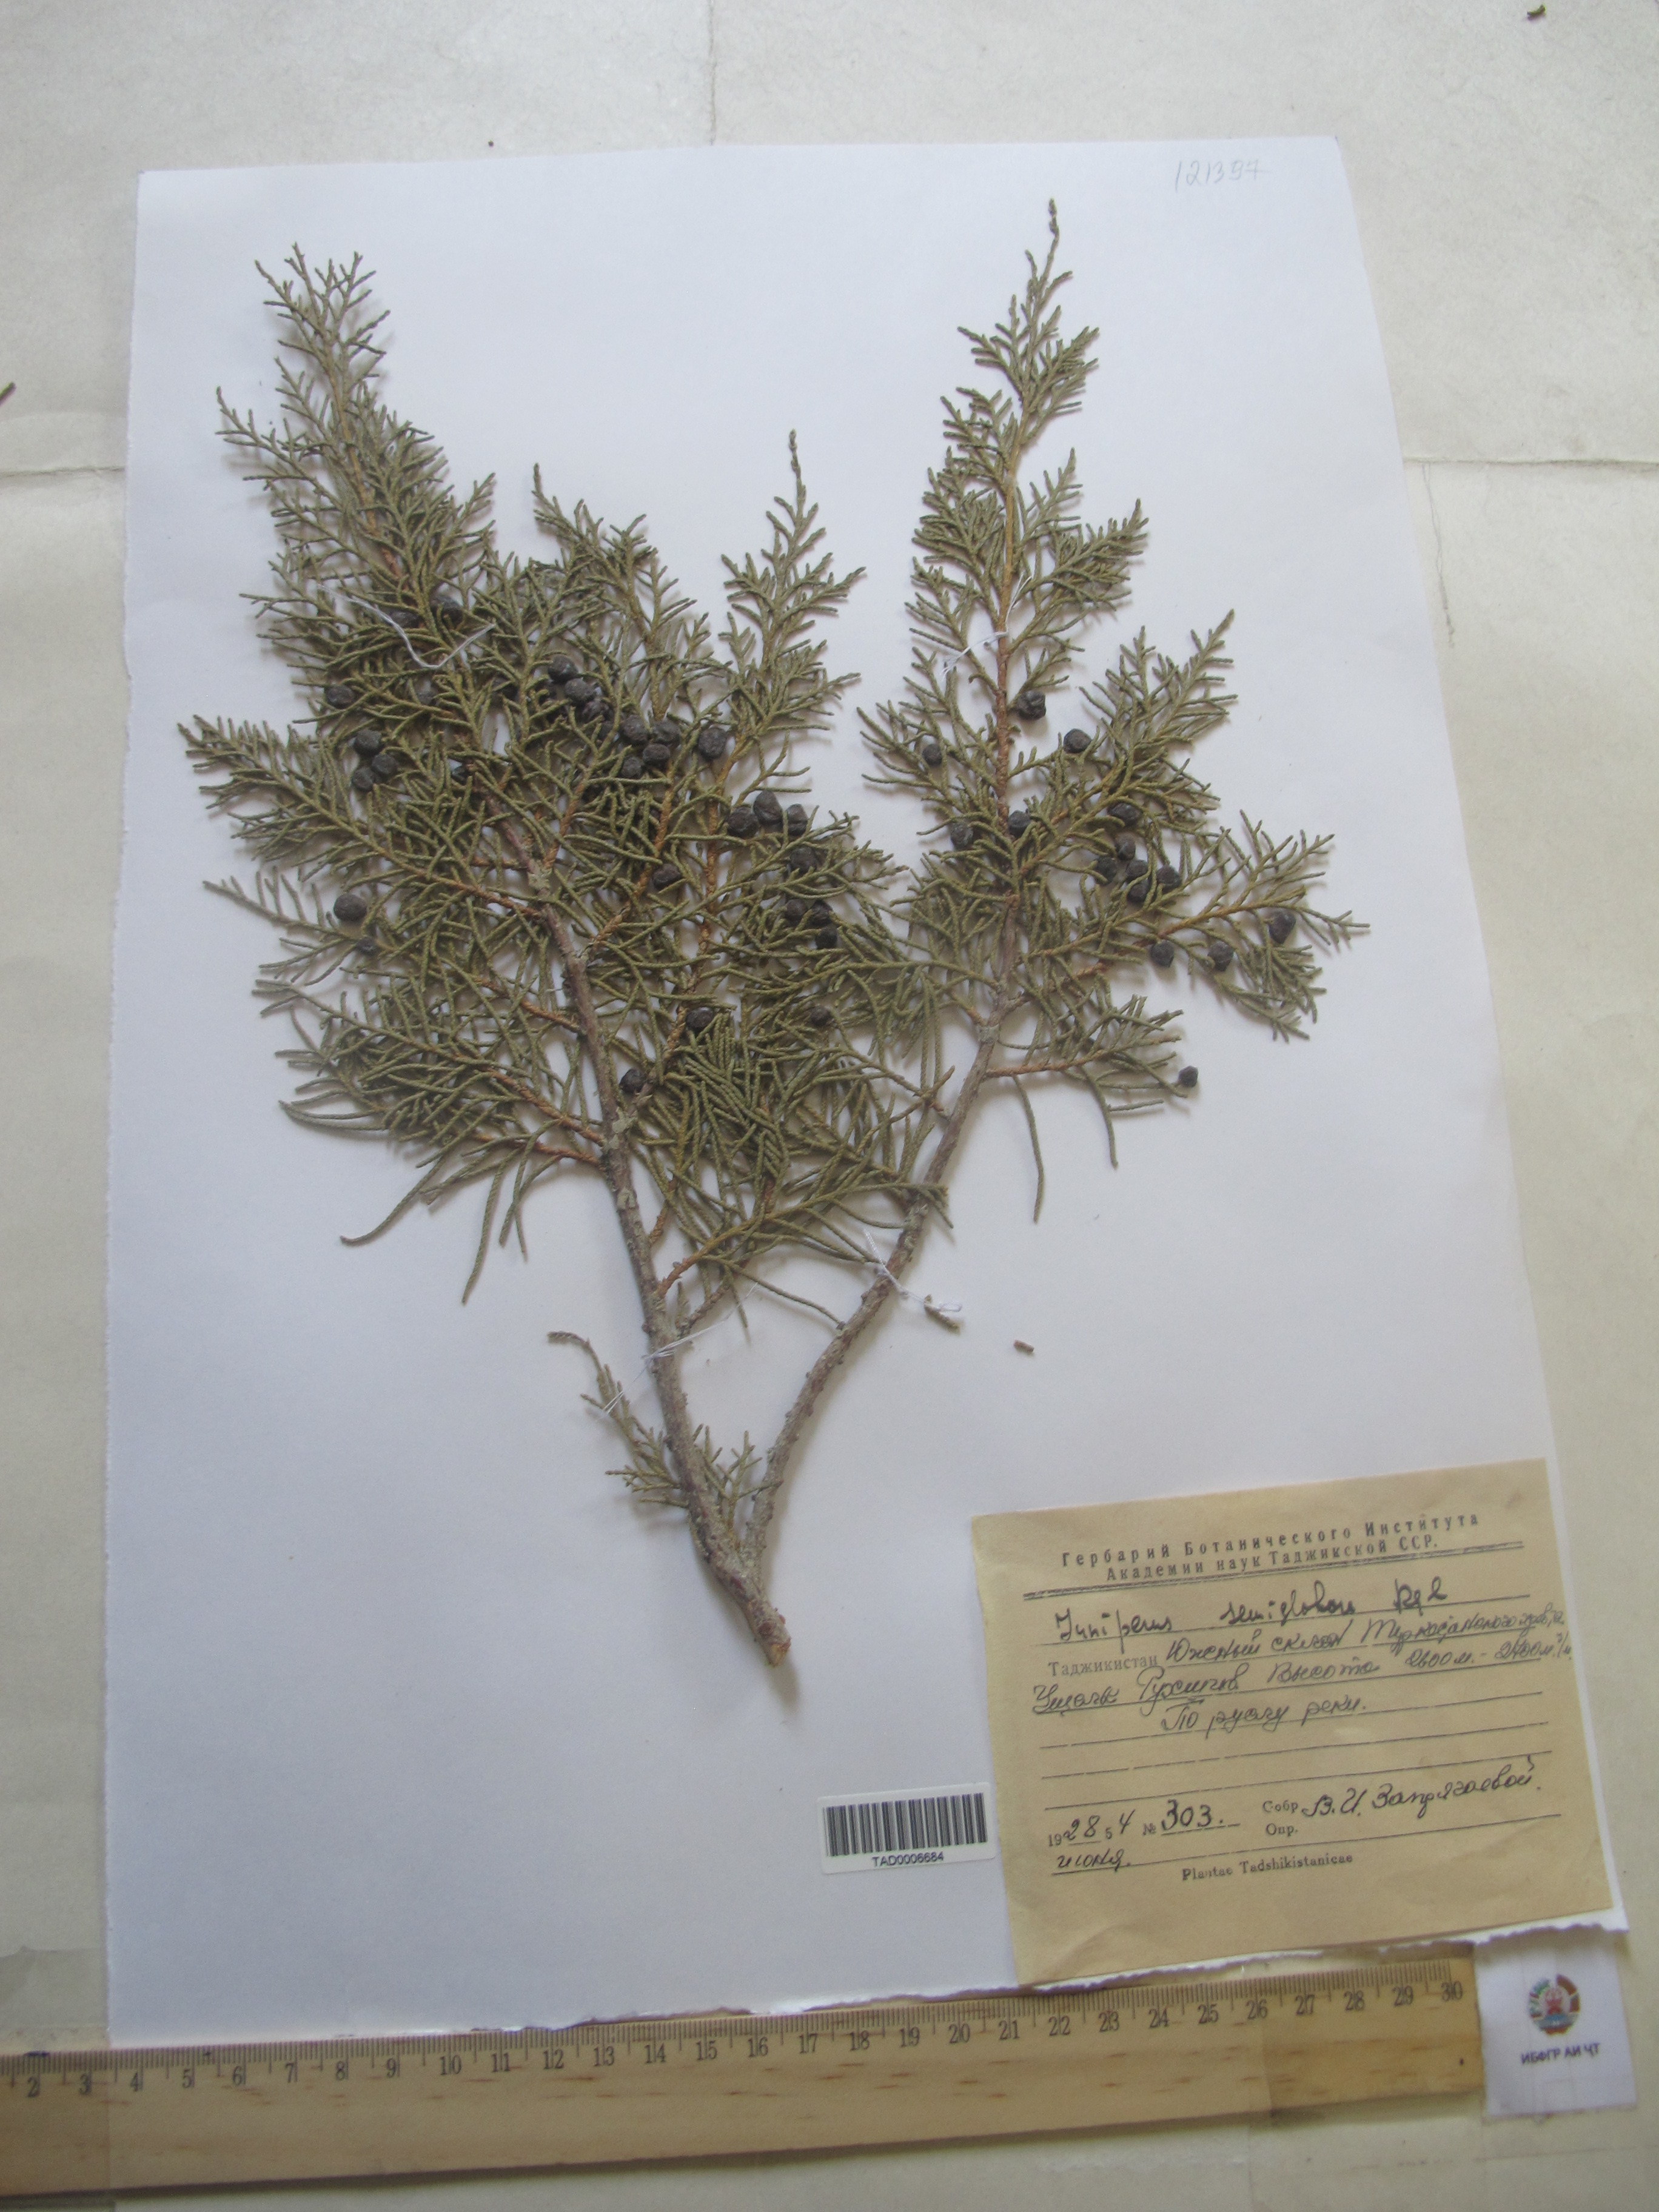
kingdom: Plantae
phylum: Tracheophyta
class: Pinopsida
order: Pinales
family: Cupressaceae
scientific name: Cupressaceae
